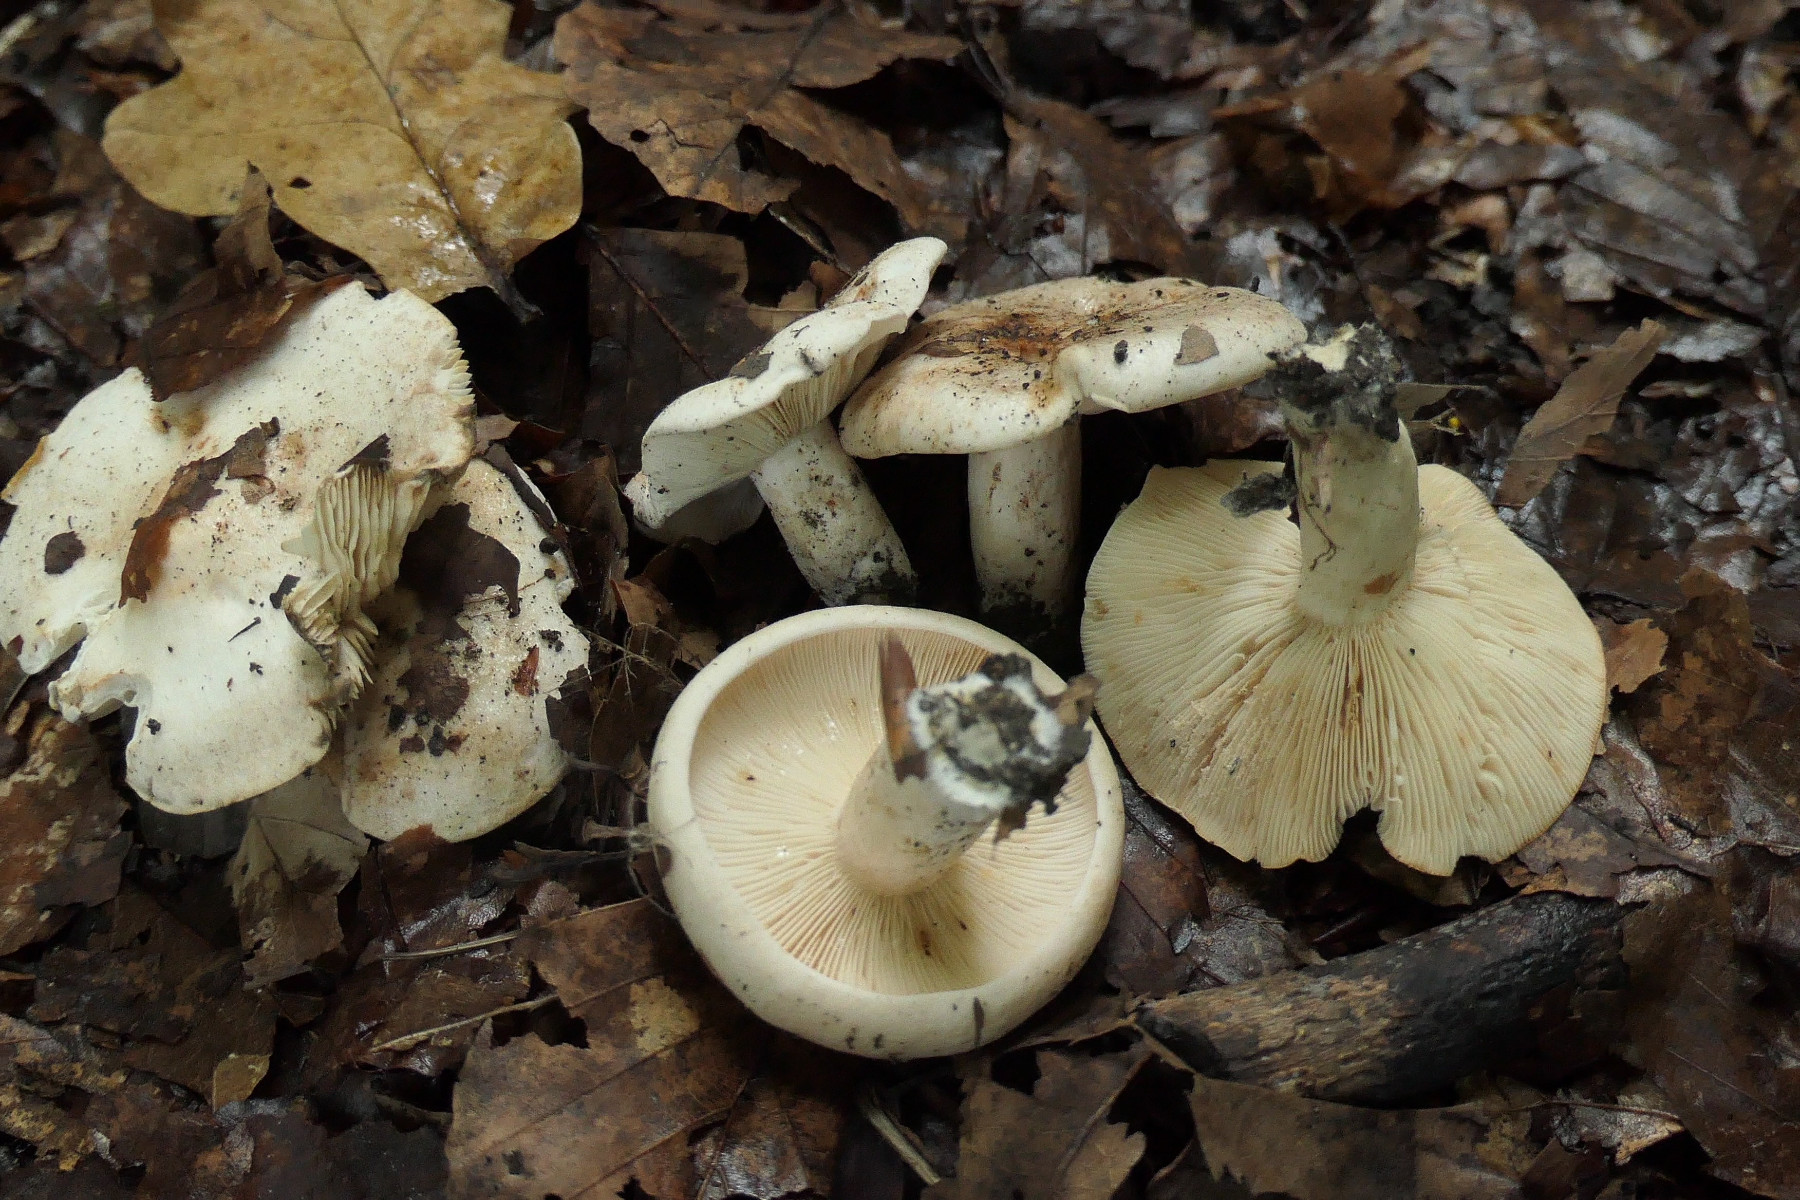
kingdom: Fungi
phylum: Basidiomycota
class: Agaricomycetes
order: Russulales
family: Russulaceae
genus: Lactarius
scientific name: Lactarius pallidus
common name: bleg mælkehat
